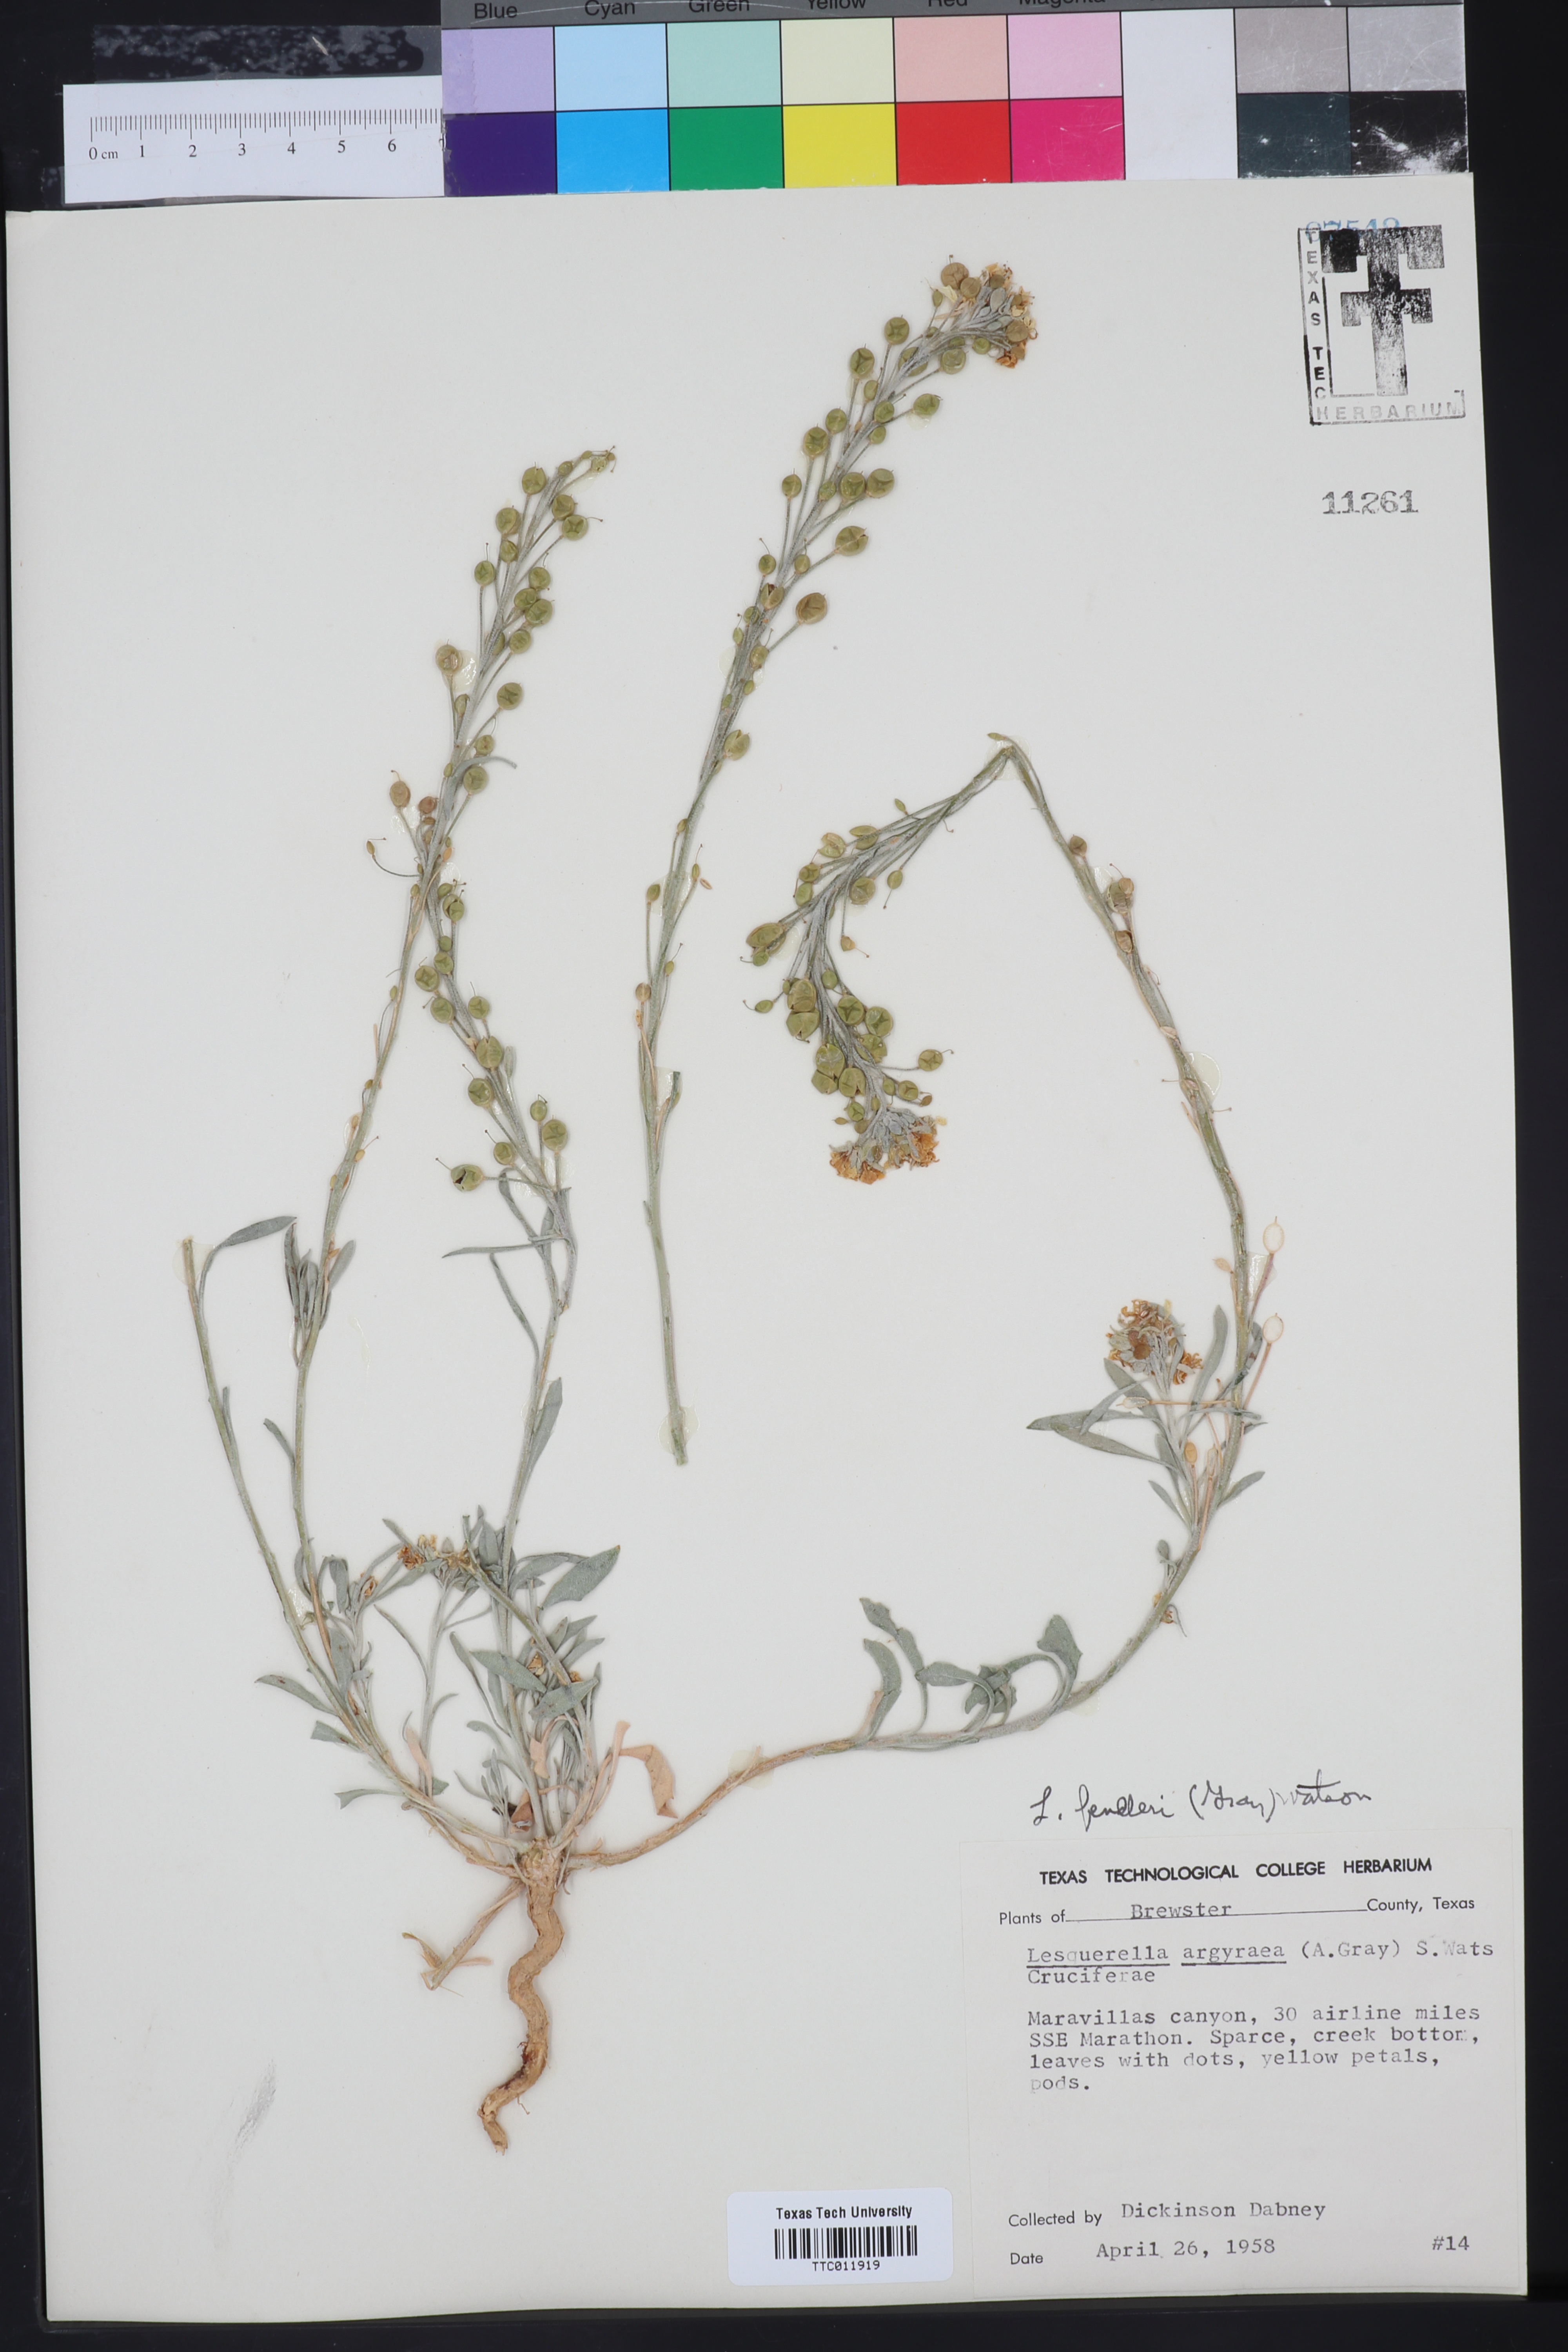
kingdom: Plantae
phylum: Tracheophyta
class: Magnoliopsida
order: Brassicales
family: Brassicaceae
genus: Physaria
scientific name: Physaria fendleri
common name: Fendler's bladderpod
